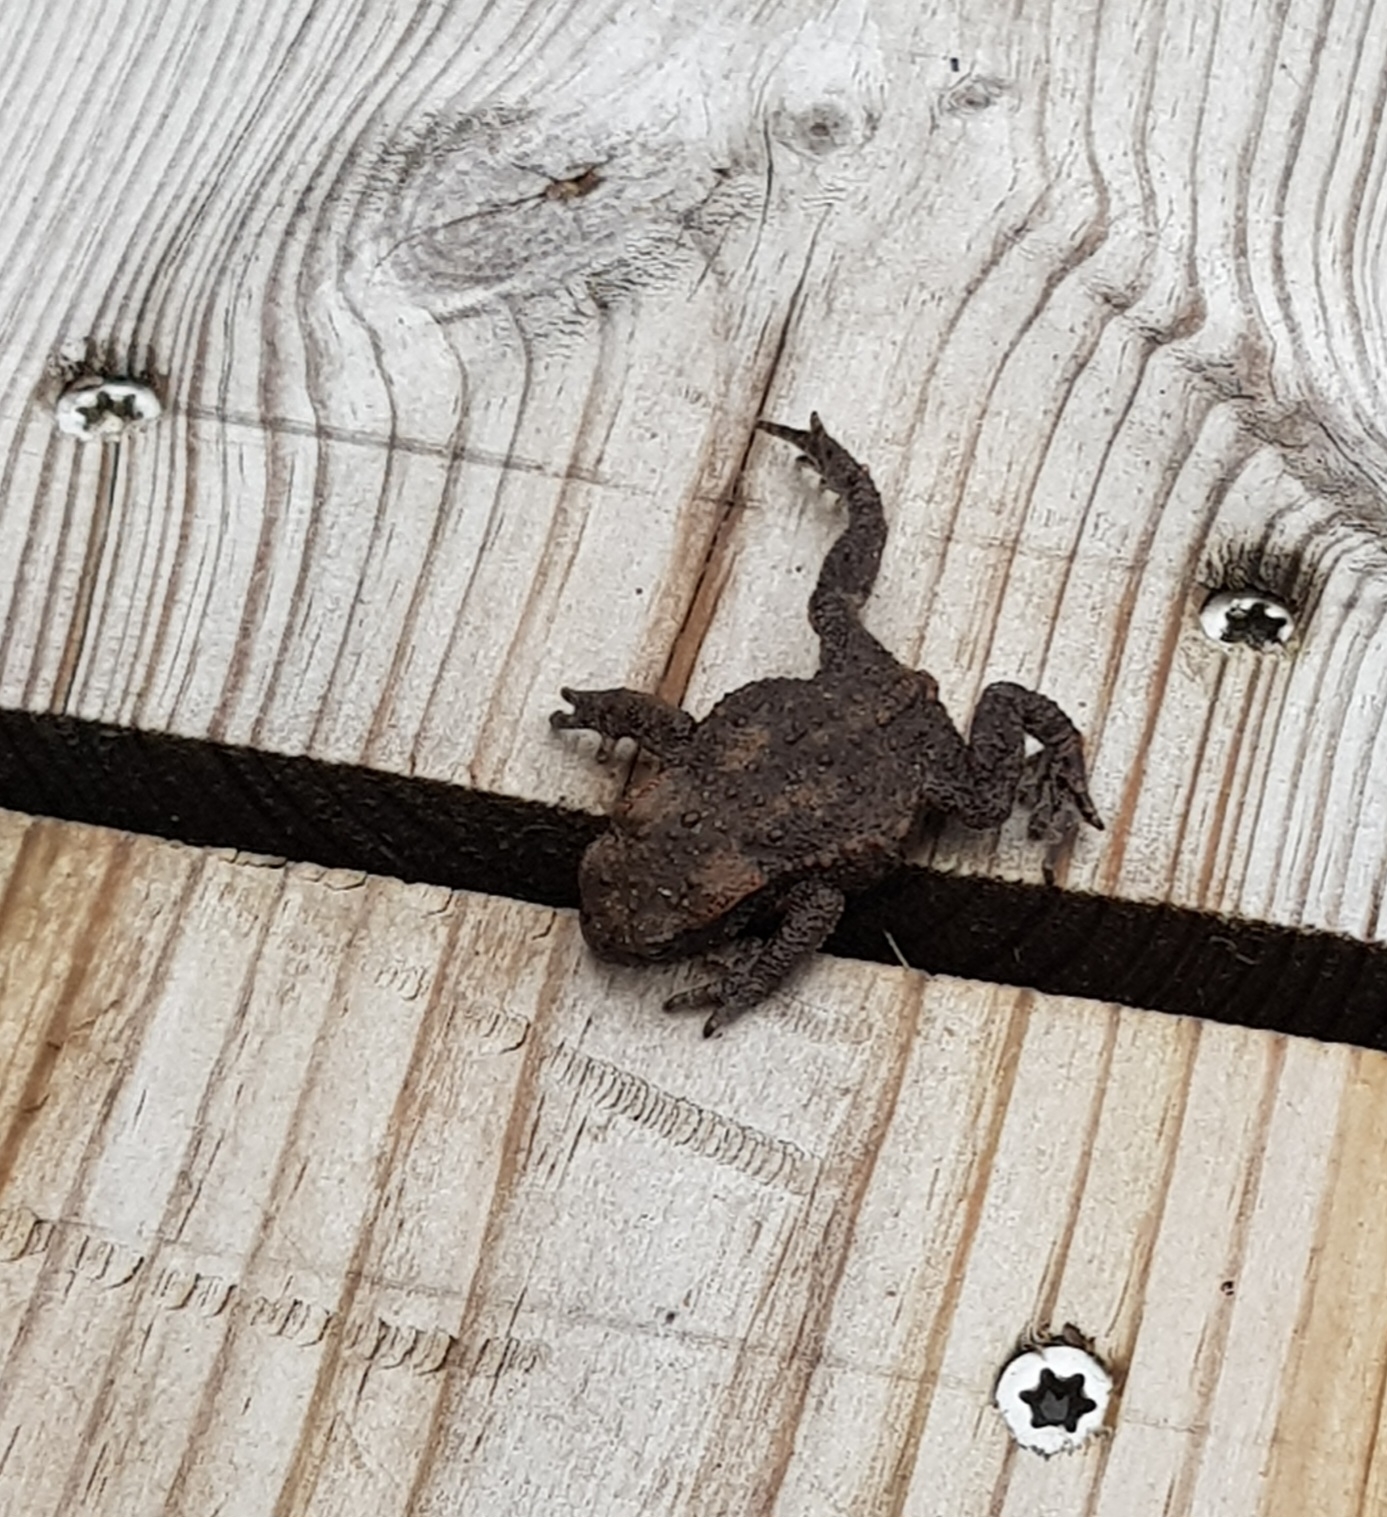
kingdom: Animalia
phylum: Chordata
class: Amphibia
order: Anura
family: Bufonidae
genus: Bufo
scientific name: Bufo bufo
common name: Skrubtudse
